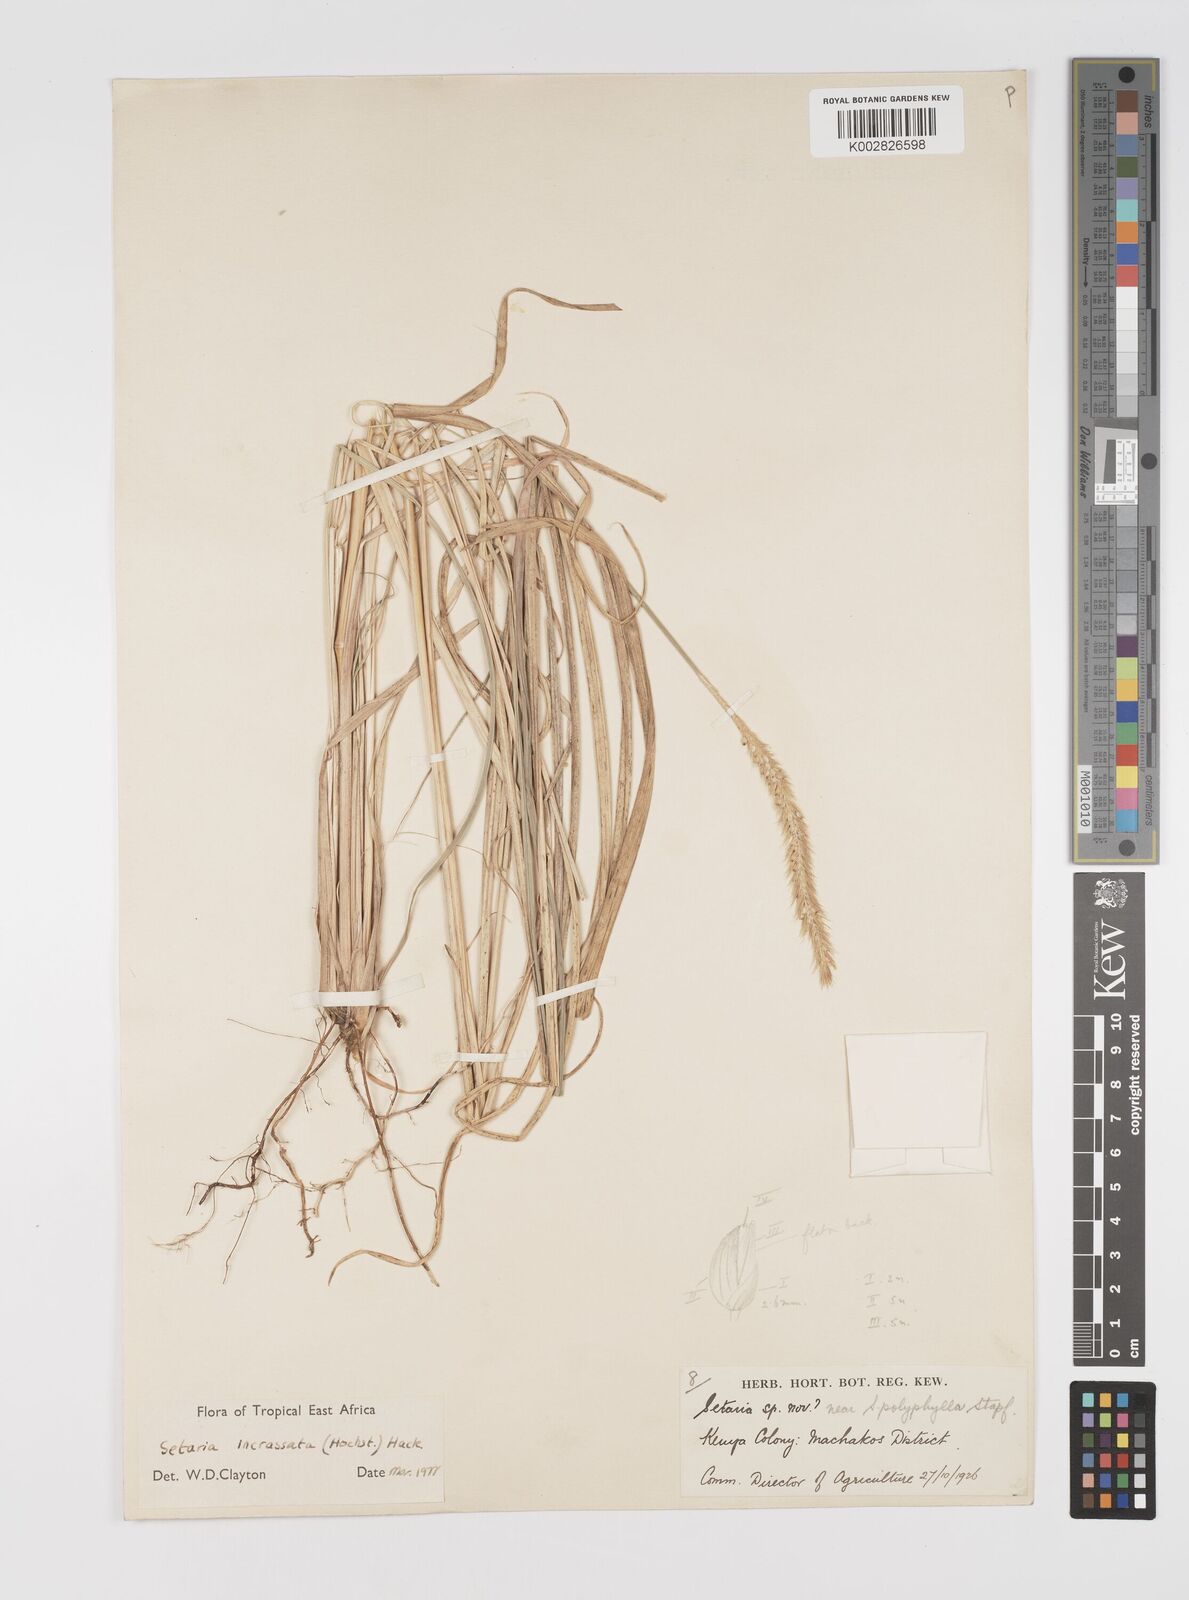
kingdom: Plantae
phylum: Tracheophyta
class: Liliopsida
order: Poales
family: Poaceae
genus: Setaria
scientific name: Setaria incrassata
